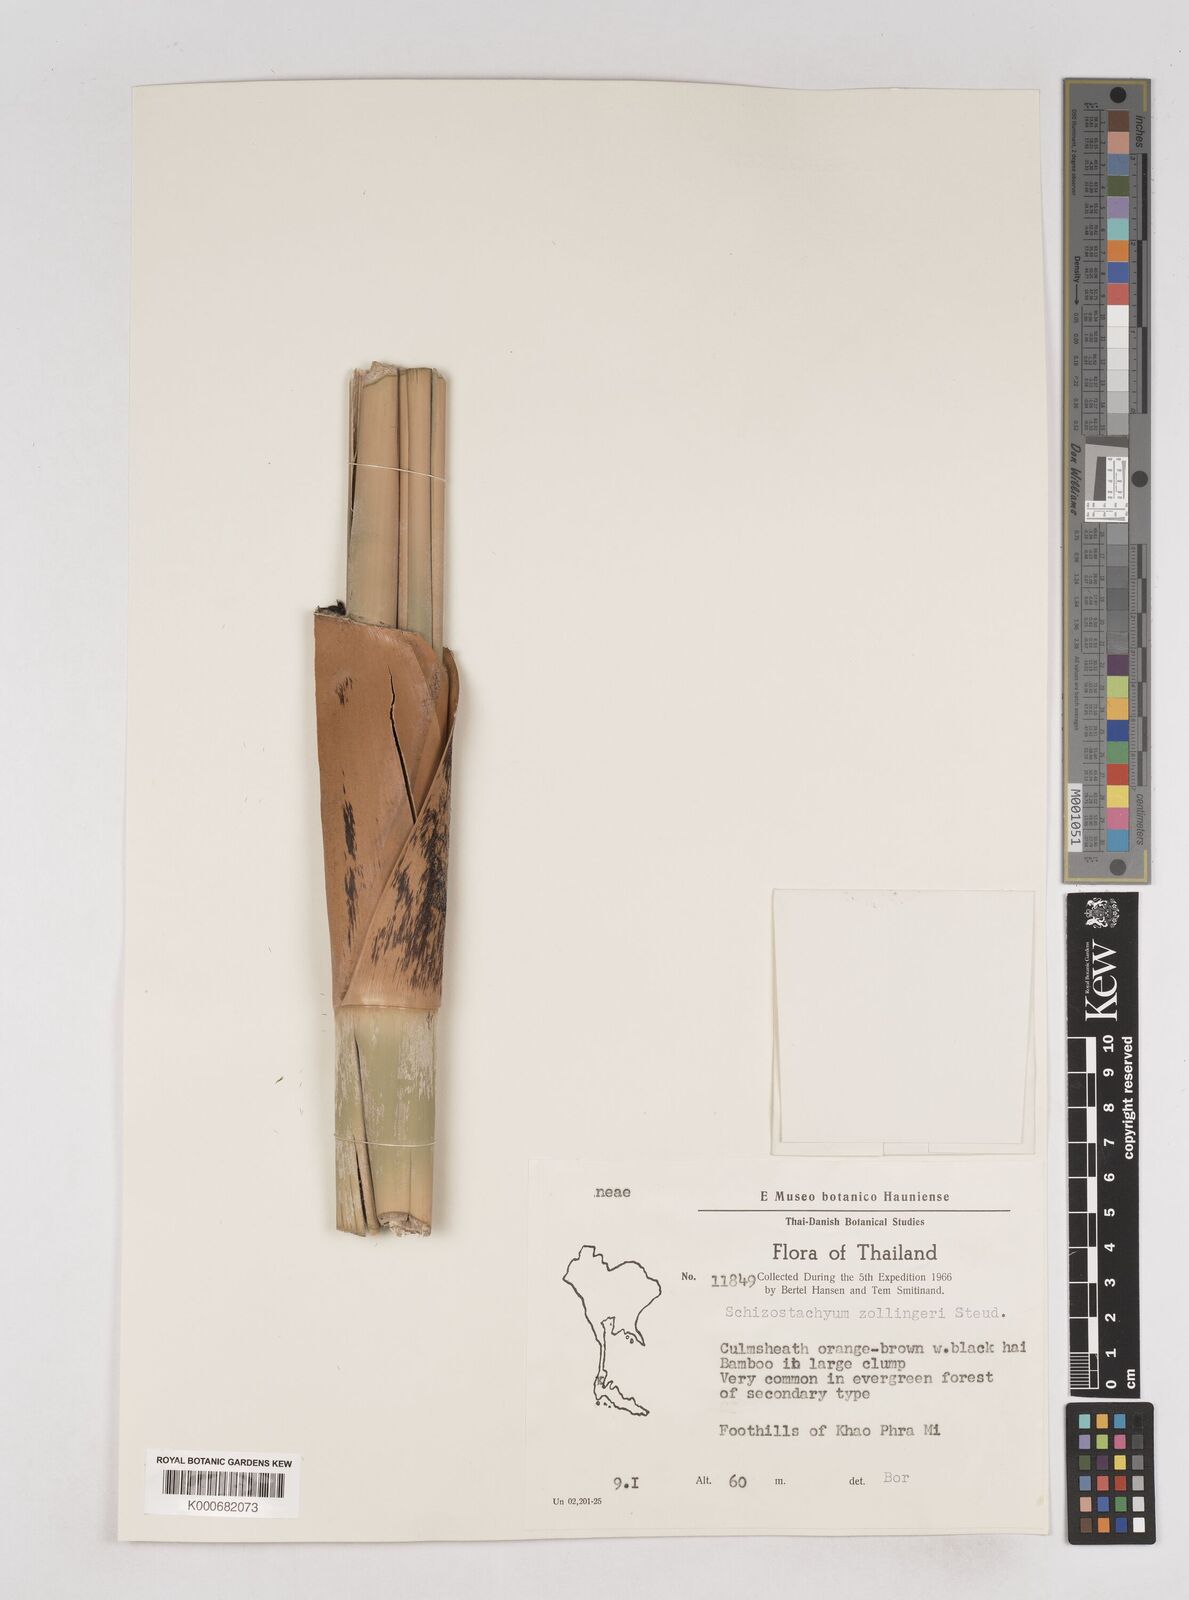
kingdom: Plantae
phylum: Tracheophyta
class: Liliopsida
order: Poales
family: Poaceae
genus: Schizostachyum
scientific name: Schizostachyum zollingeri
